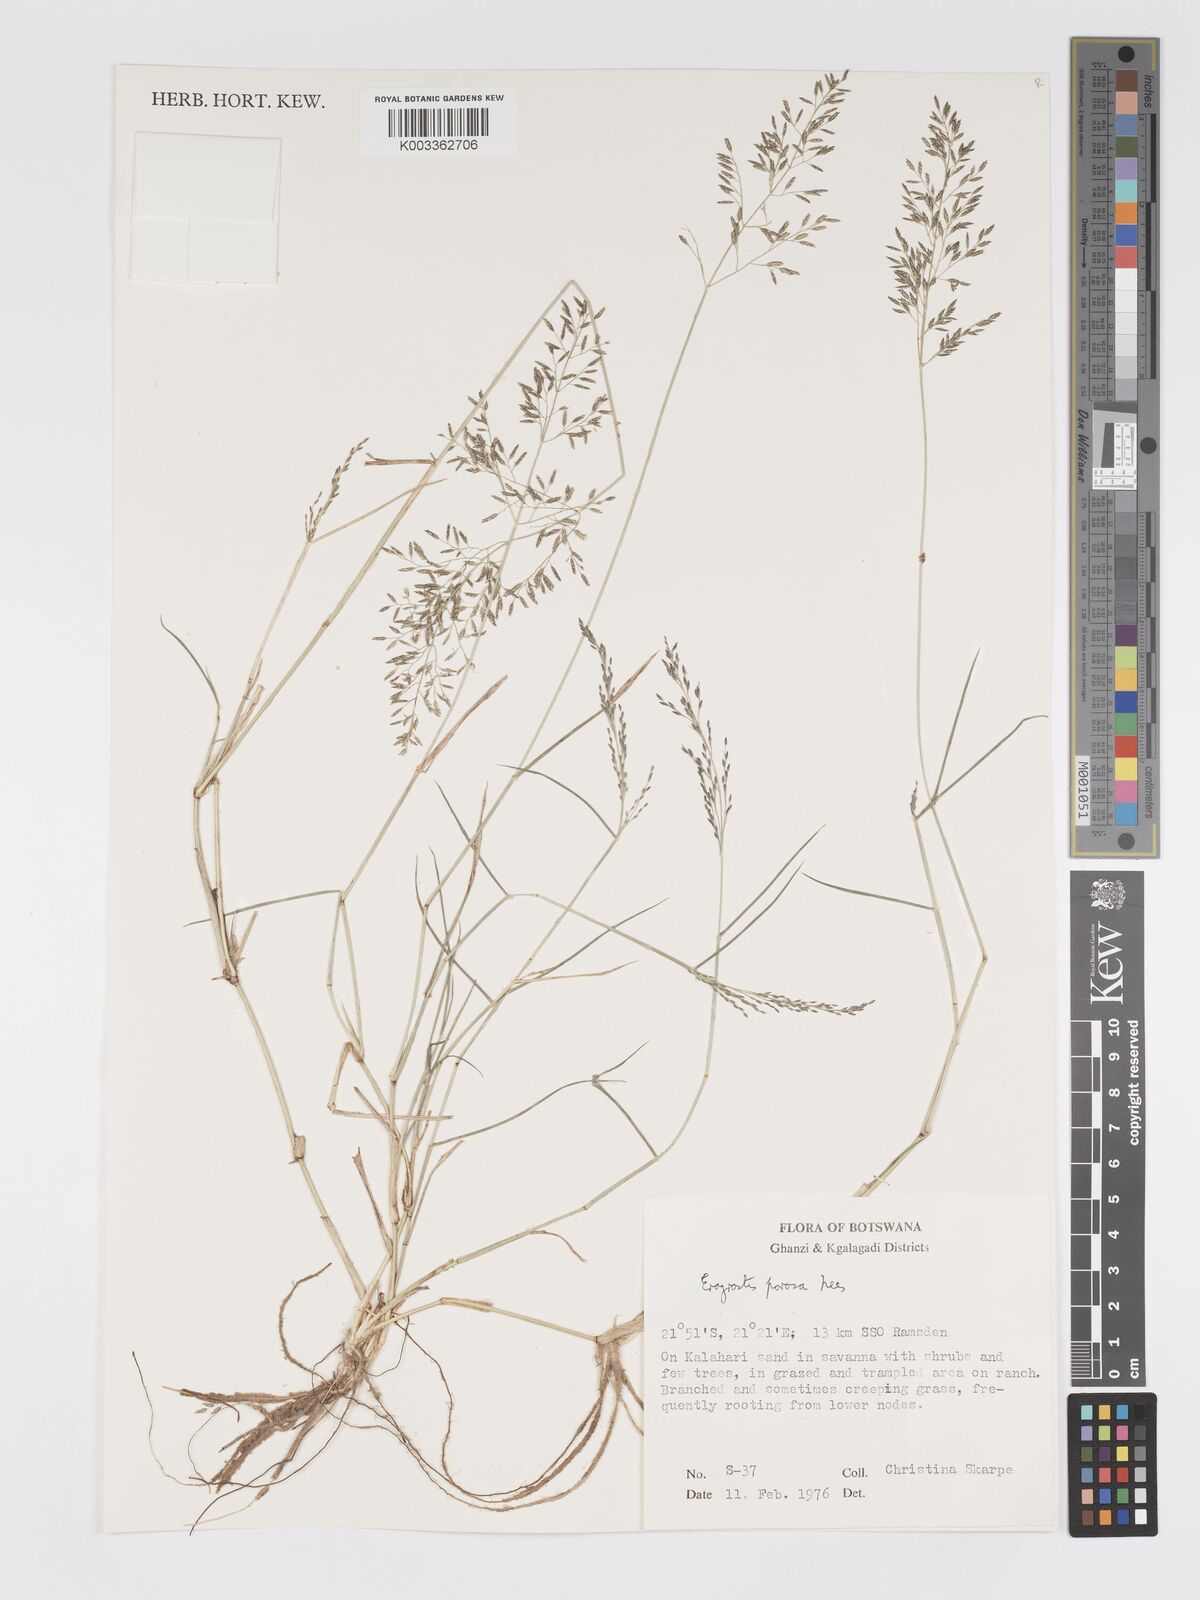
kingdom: Plantae
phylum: Tracheophyta
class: Liliopsida
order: Poales
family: Poaceae
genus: Eragrostis
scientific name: Eragrostis glandulosipedata
